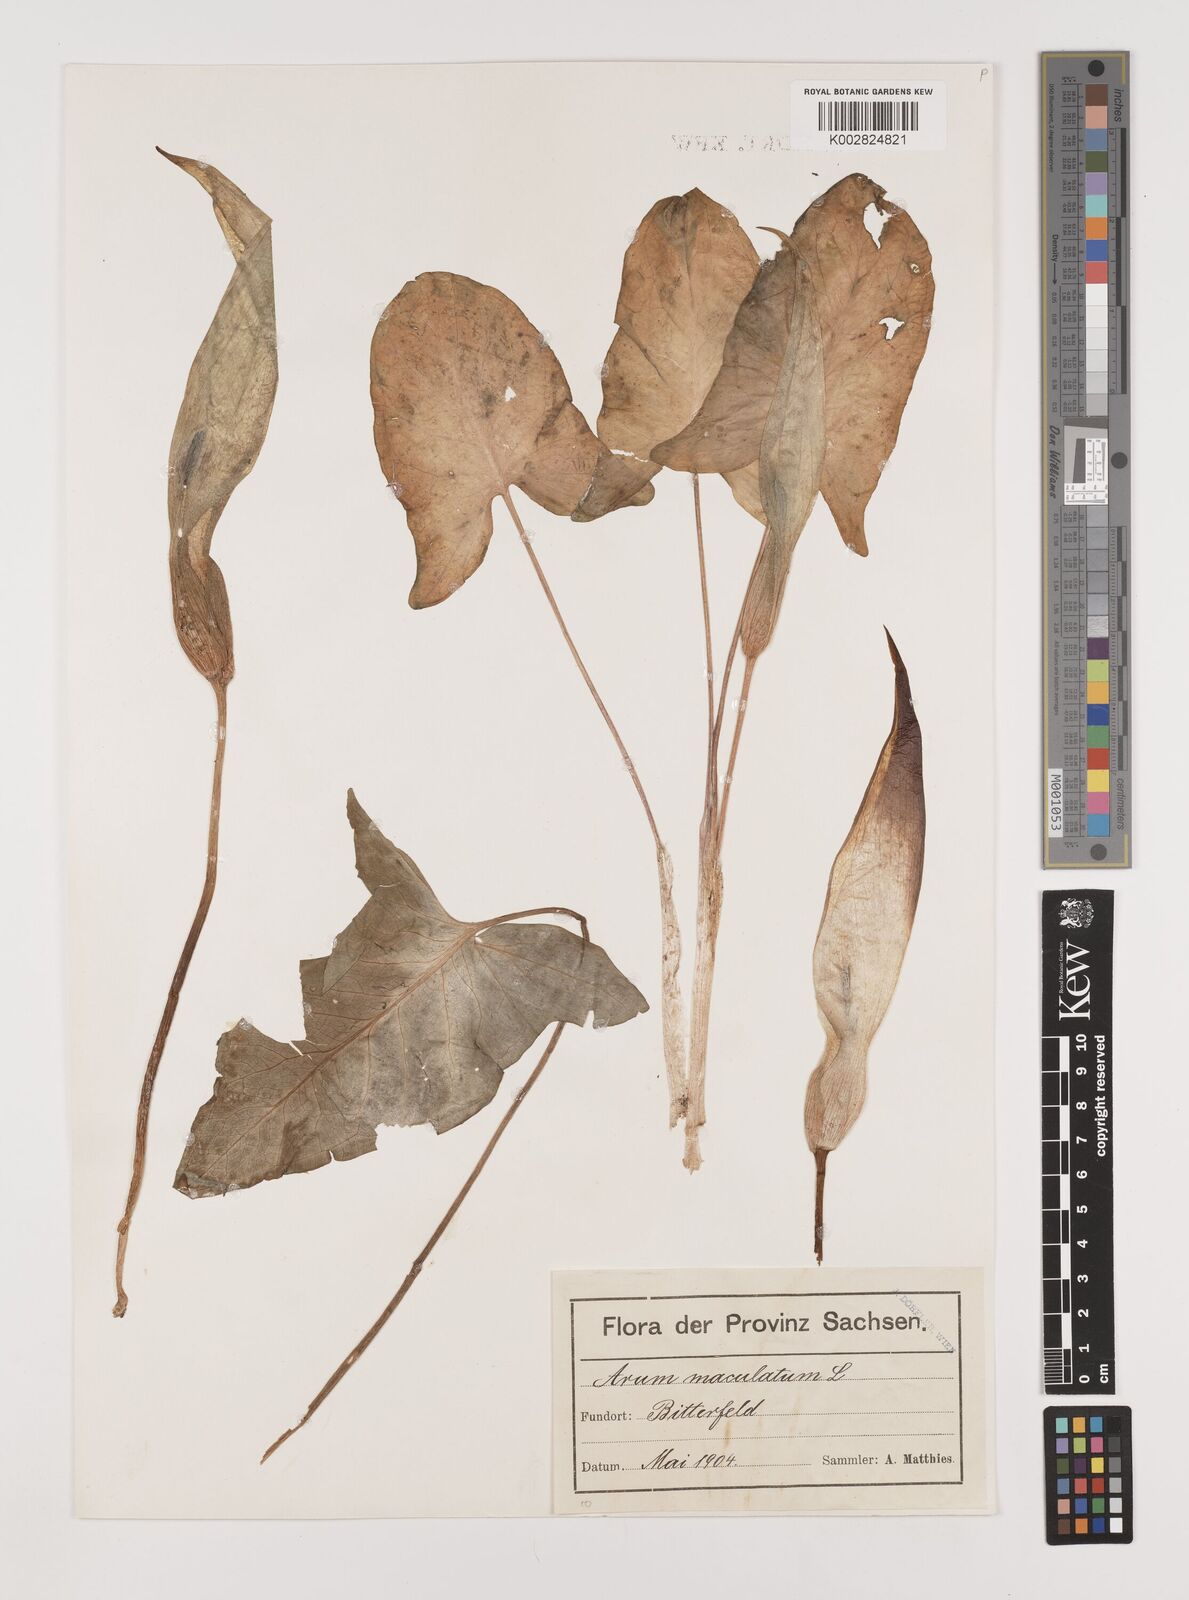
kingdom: Plantae
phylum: Tracheophyta
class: Liliopsida
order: Alismatales
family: Araceae
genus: Arum
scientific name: Arum maculatum
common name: Lords-and-ladies
